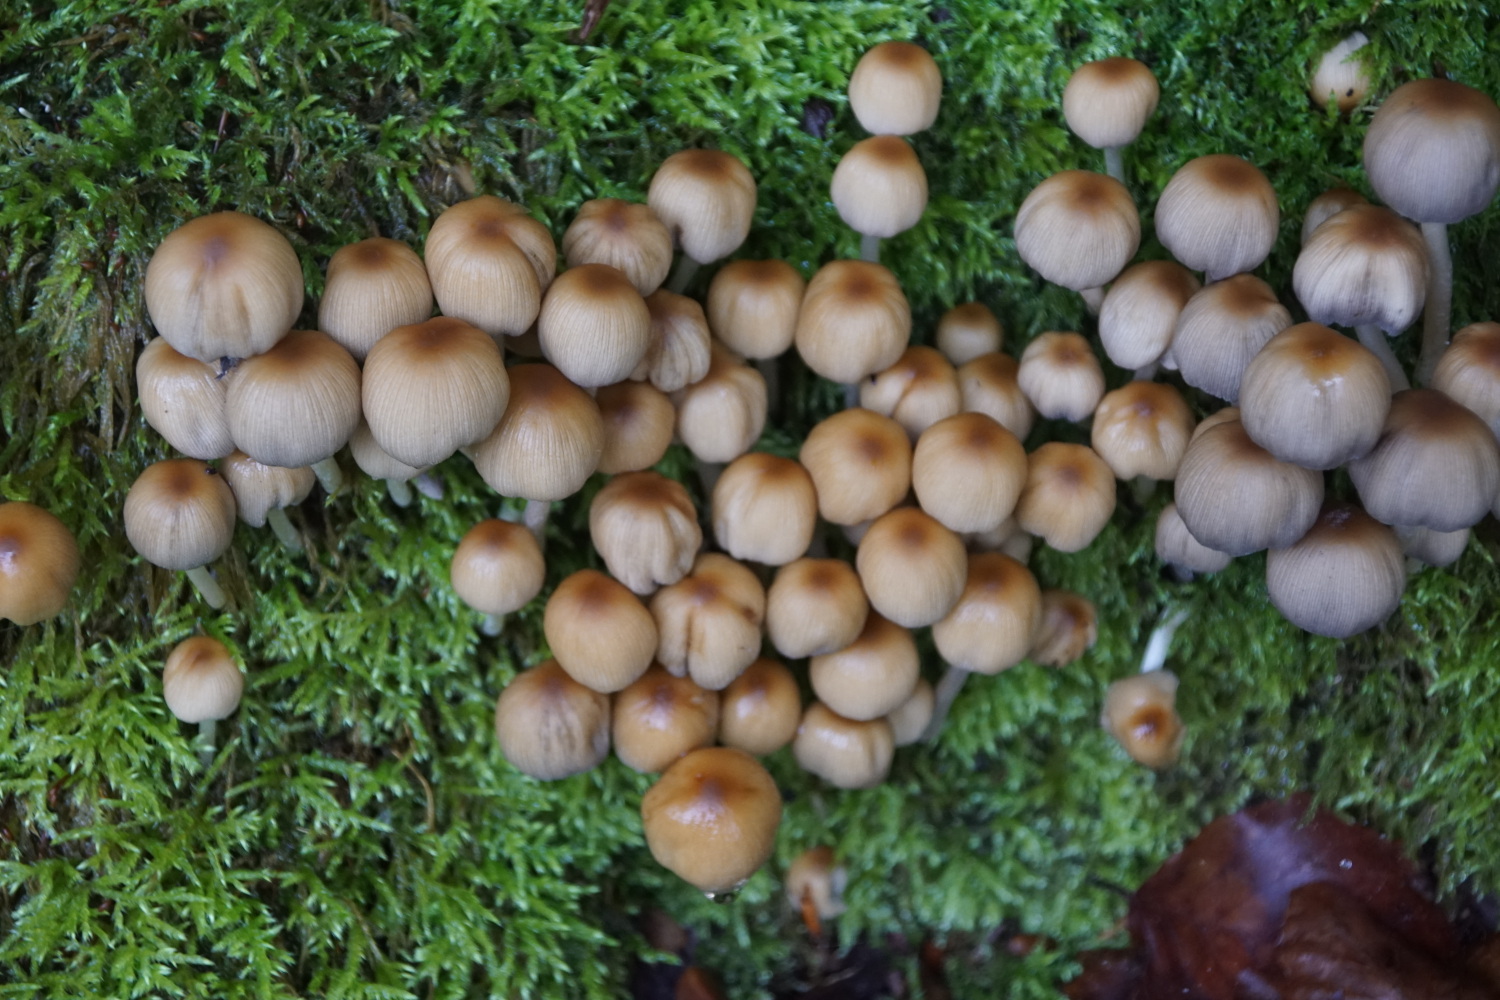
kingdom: Fungi
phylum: Basidiomycota
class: Agaricomycetes
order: Agaricales
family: Psathyrellaceae
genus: Coprinellus
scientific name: Coprinellus micaceus
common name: glimmer-blækhat
